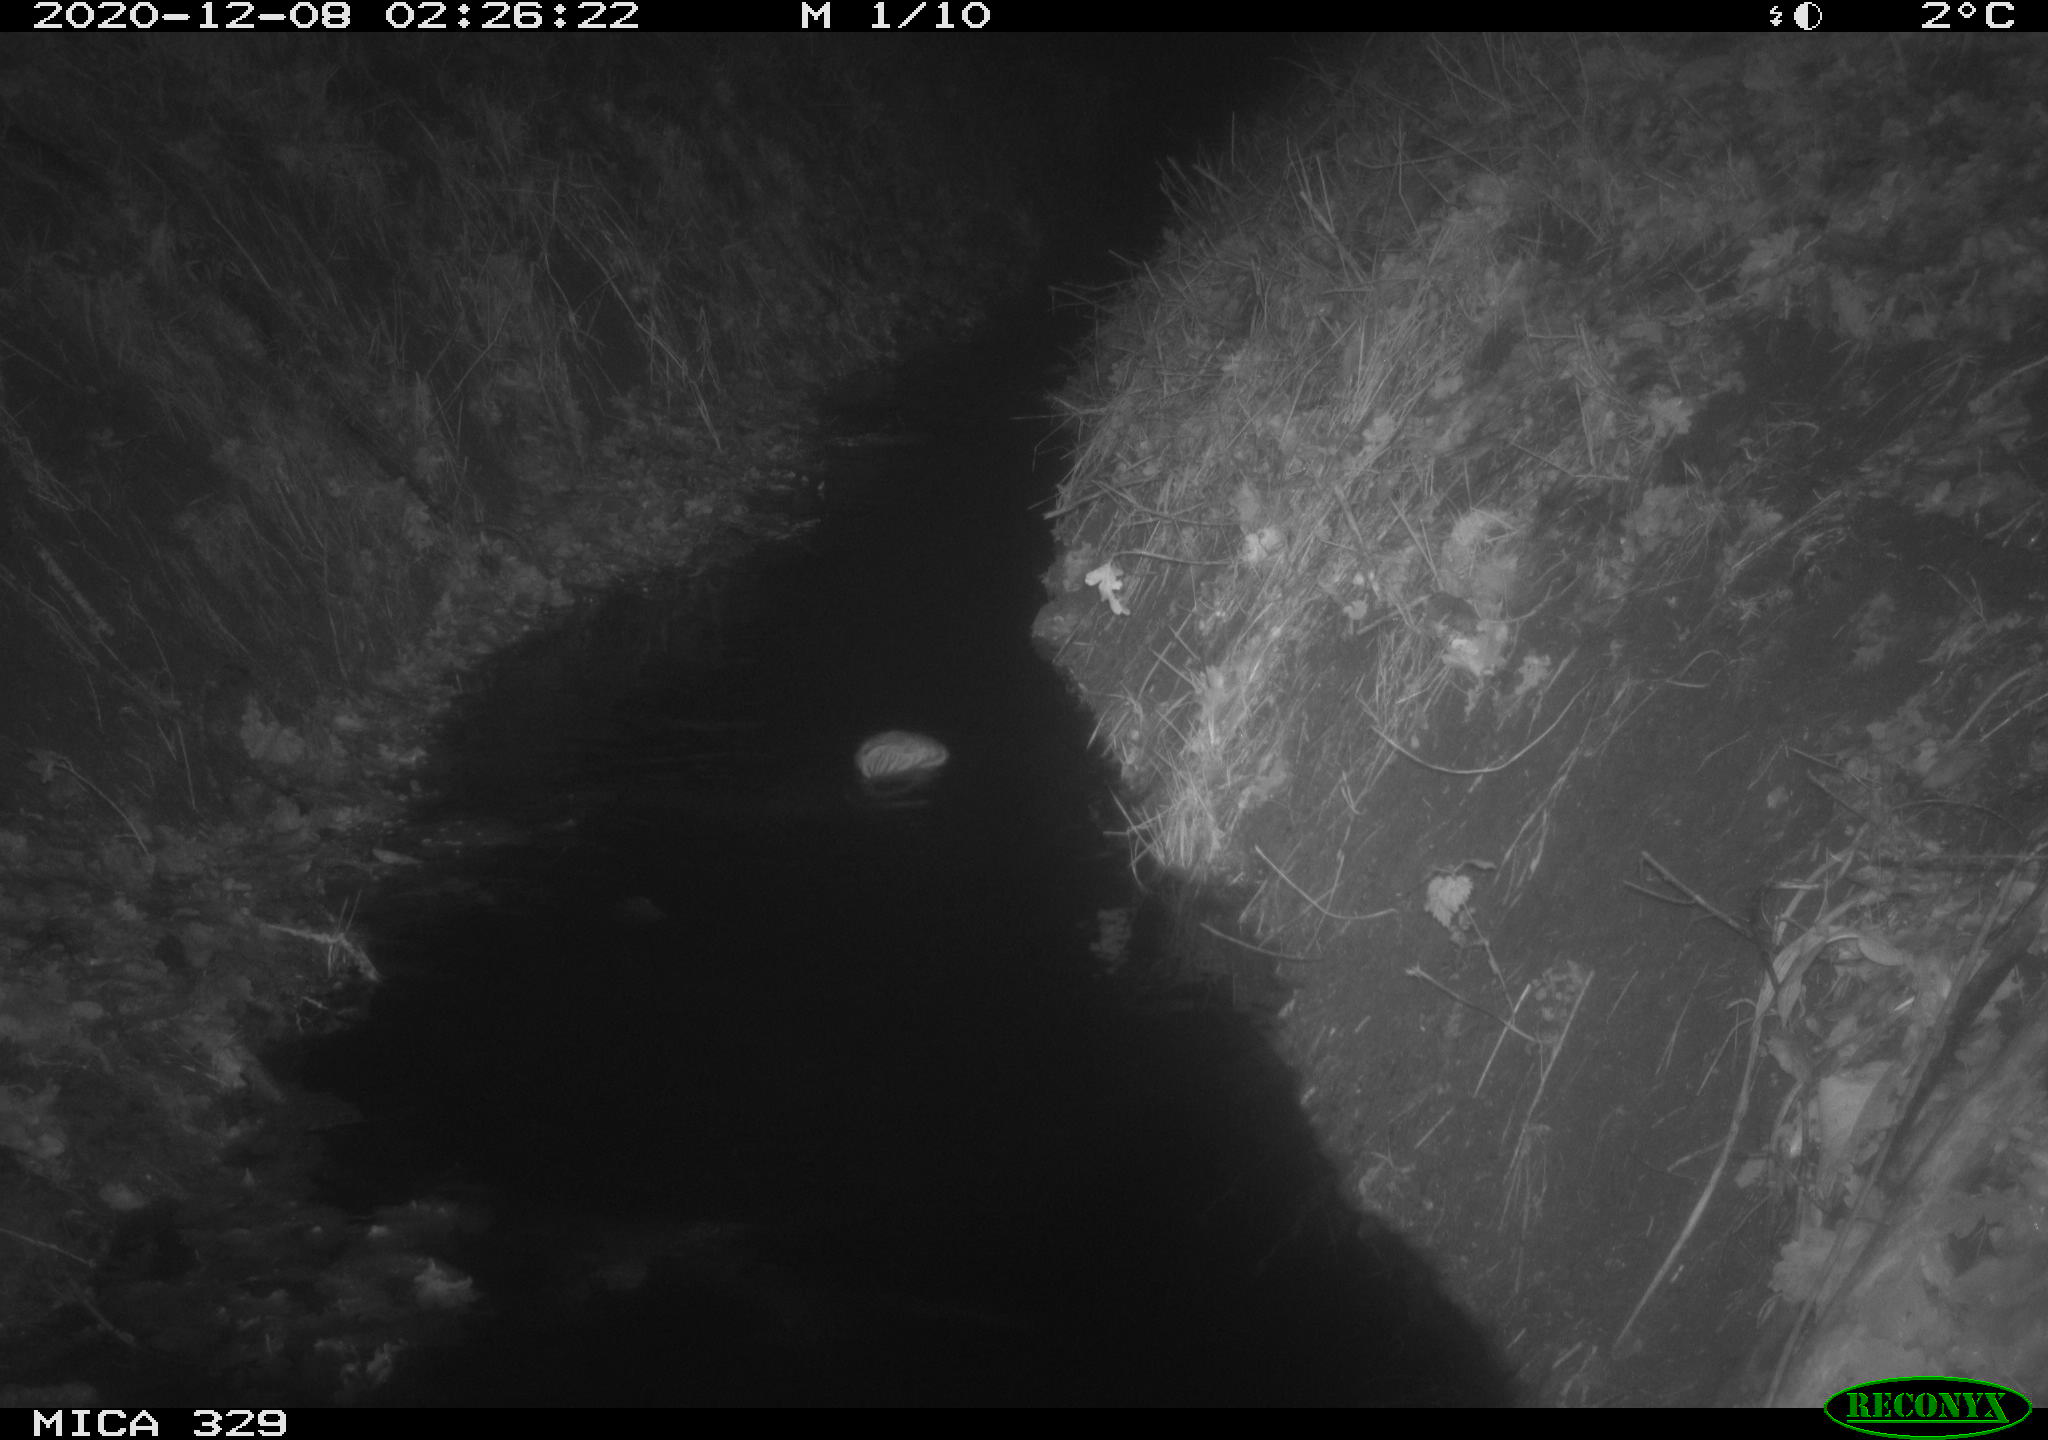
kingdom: Animalia
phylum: Chordata
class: Mammalia
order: Rodentia
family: Cricetidae
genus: Ondatra
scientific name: Ondatra zibethicus
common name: Muskrat
